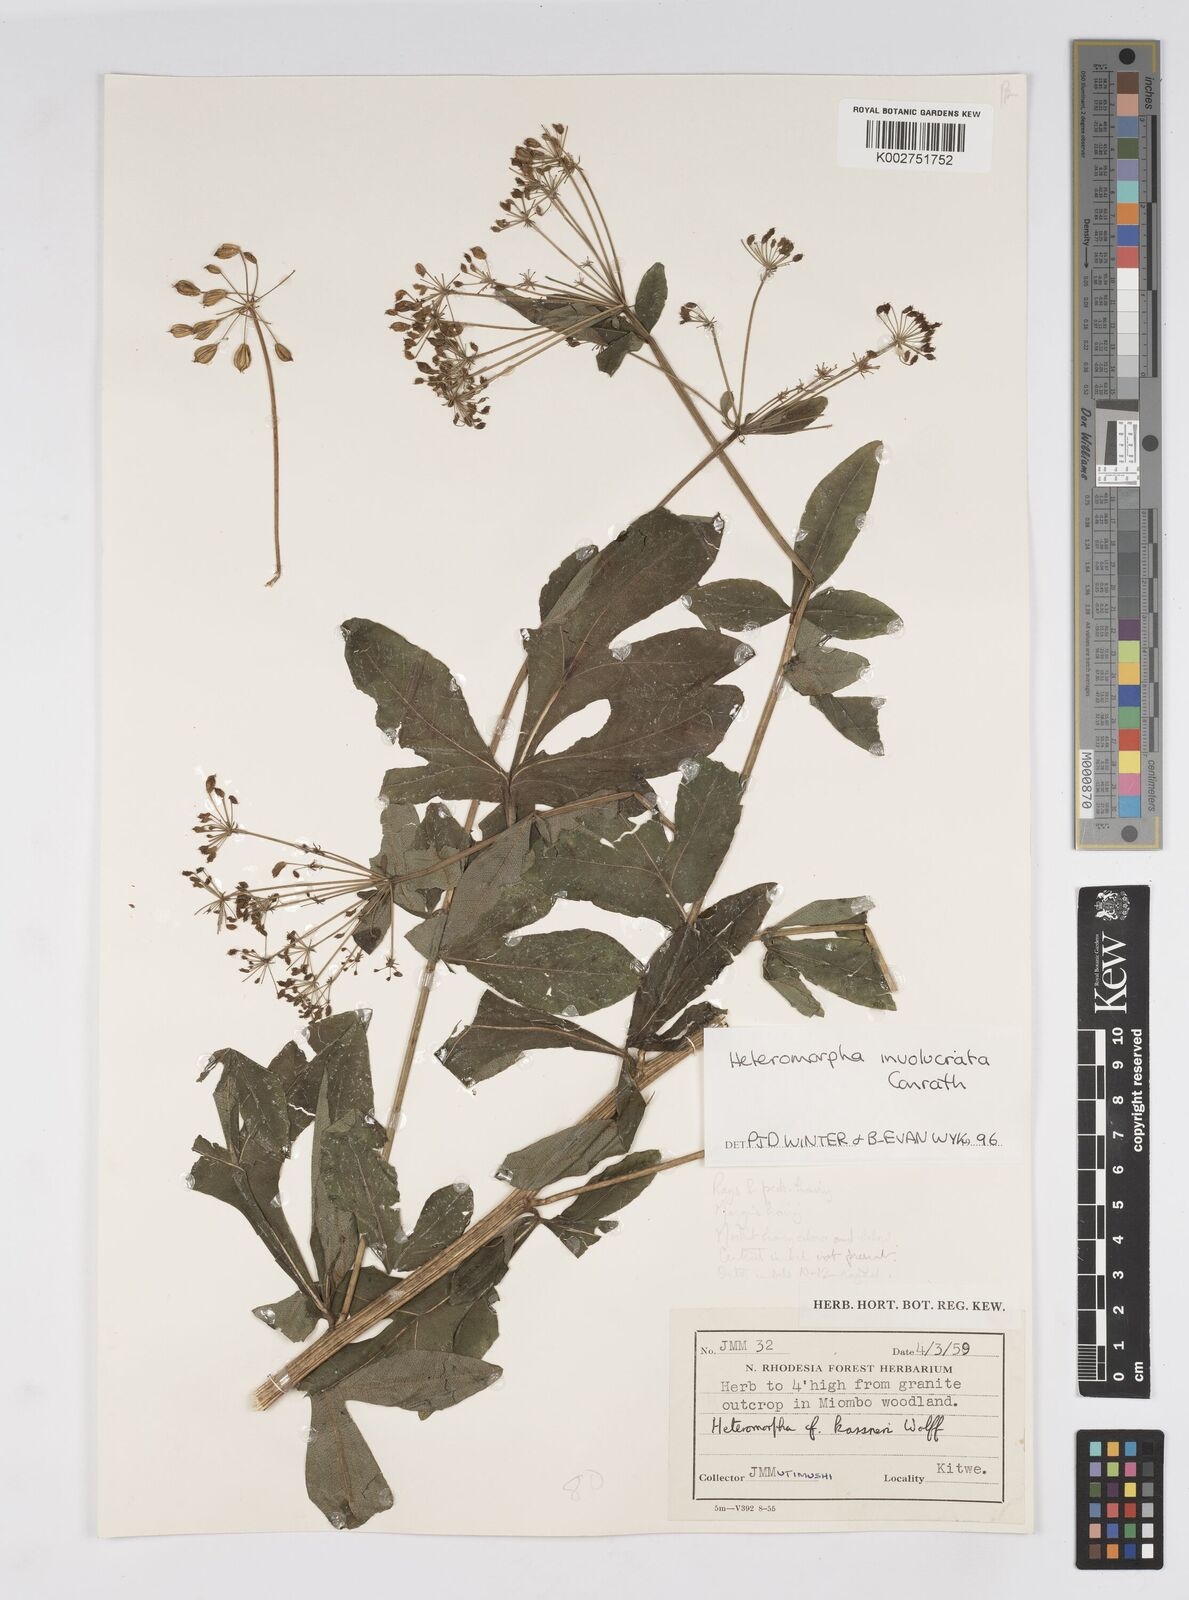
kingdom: Plantae
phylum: Tracheophyta
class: Magnoliopsida
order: Apiales
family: Apiaceae
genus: Heteromorpha
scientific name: Heteromorpha involucrata
